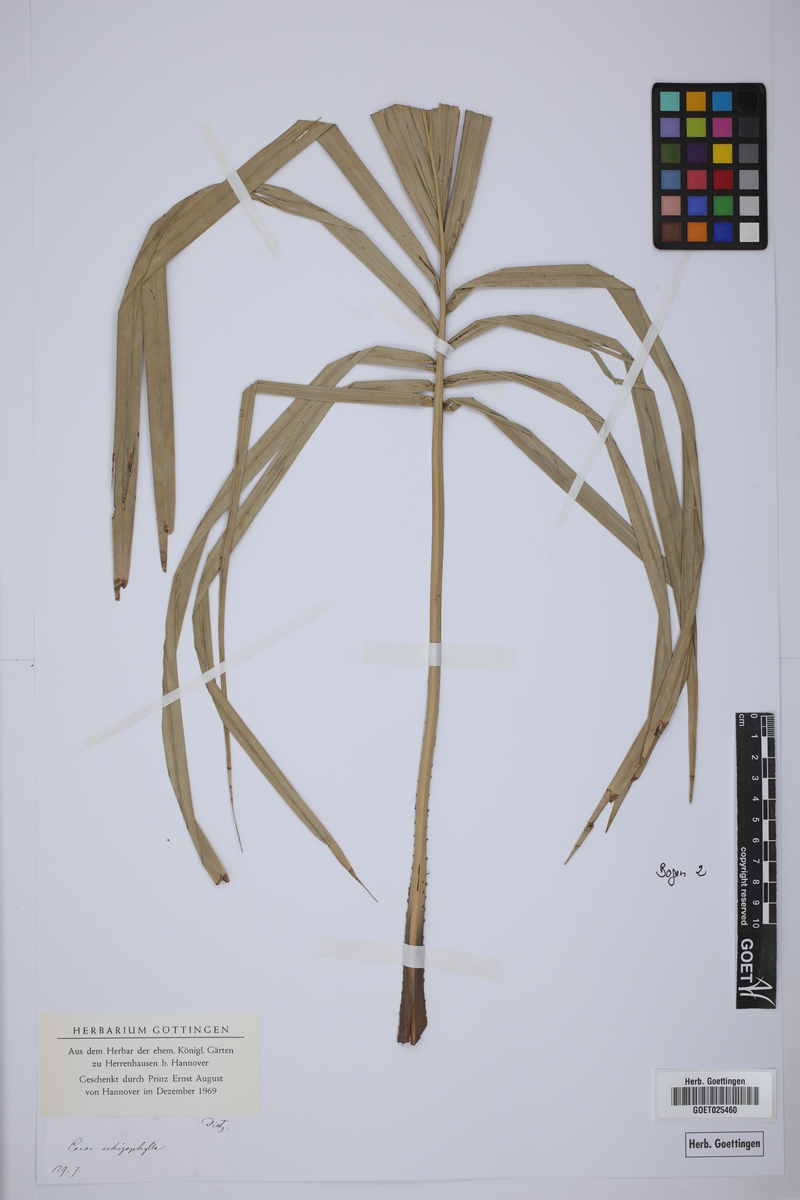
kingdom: Plantae
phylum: Tracheophyta
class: Liliopsida
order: Arecales
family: Arecaceae
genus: Syagrus
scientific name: Syagrus schizophylla
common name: Arikury palm
